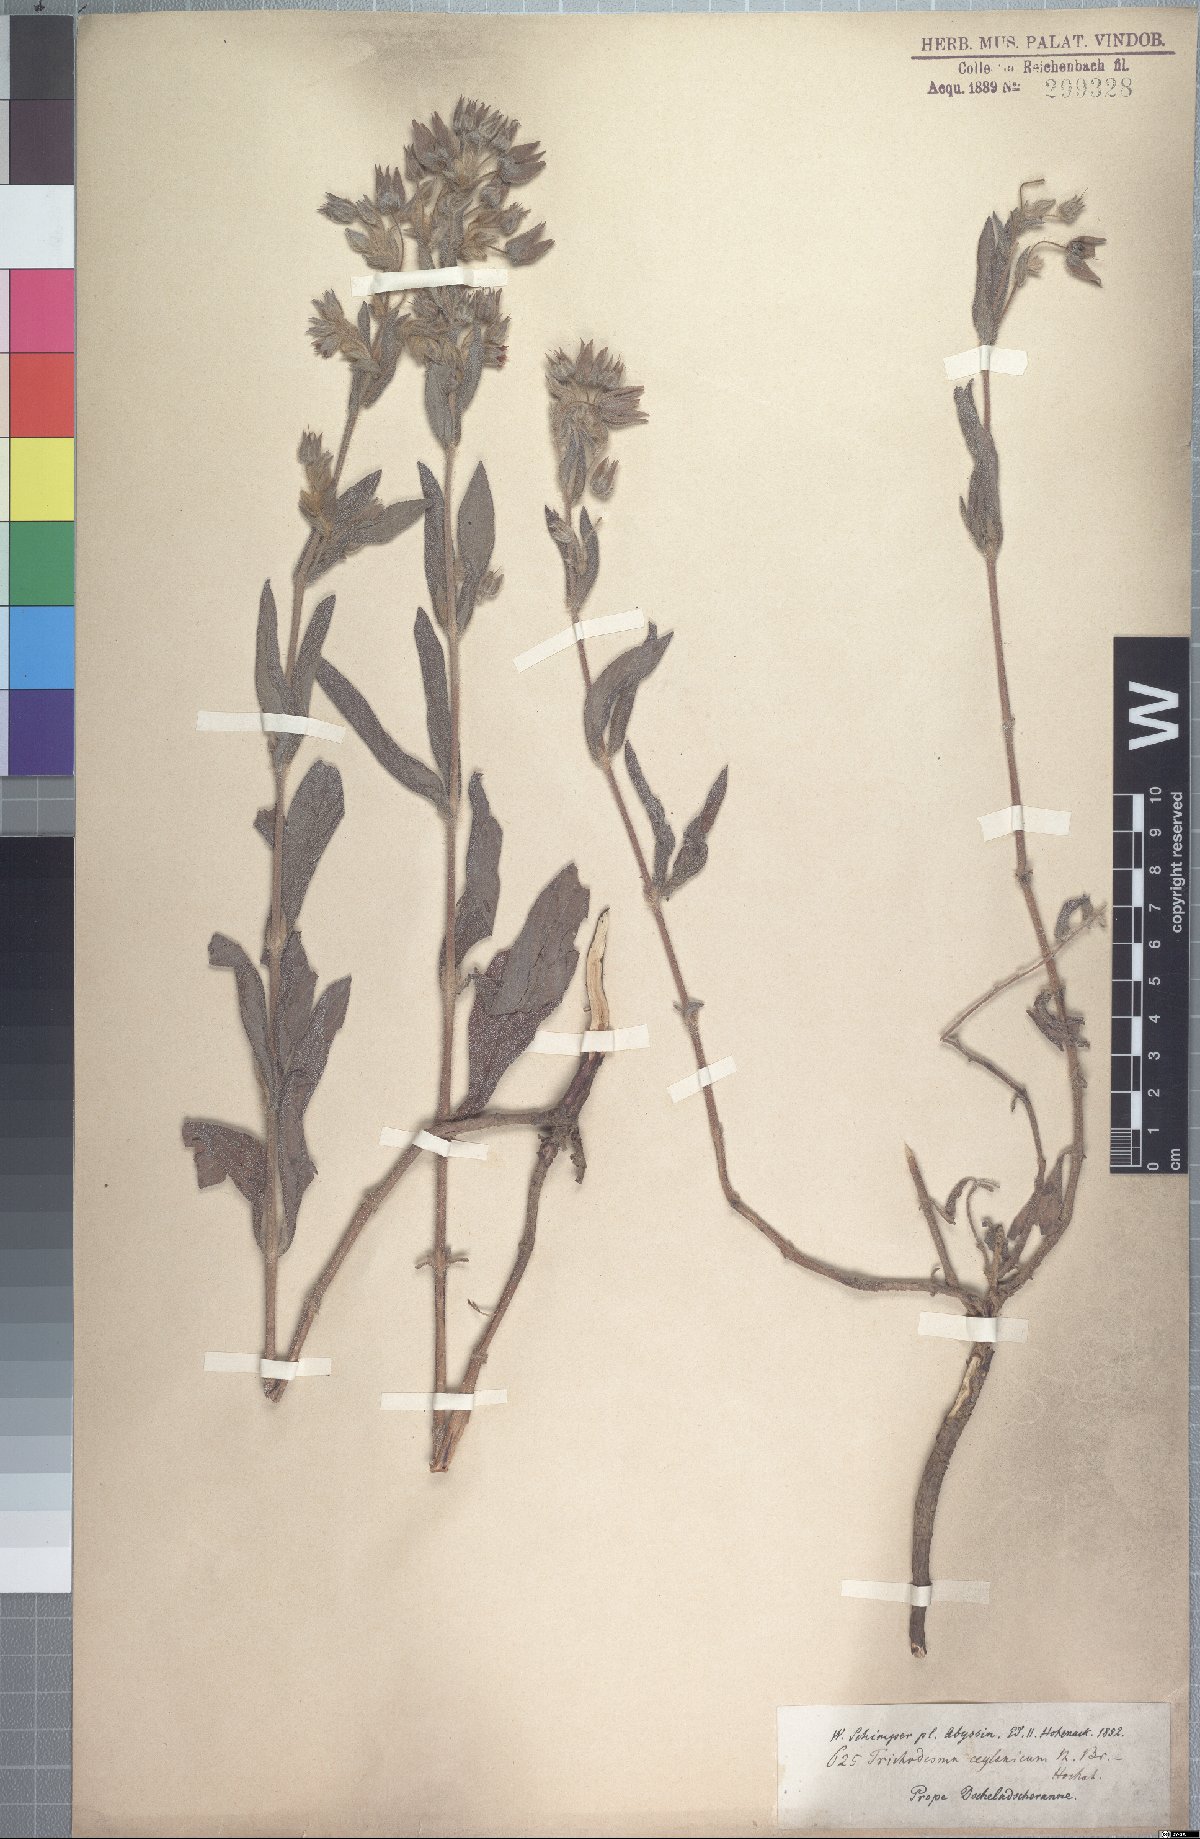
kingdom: Plantae
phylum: Tracheophyta
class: Magnoliopsida
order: Boraginales
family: Boraginaceae
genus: Trichodesma
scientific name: Trichodesma zeylanicum
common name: Camelbush
